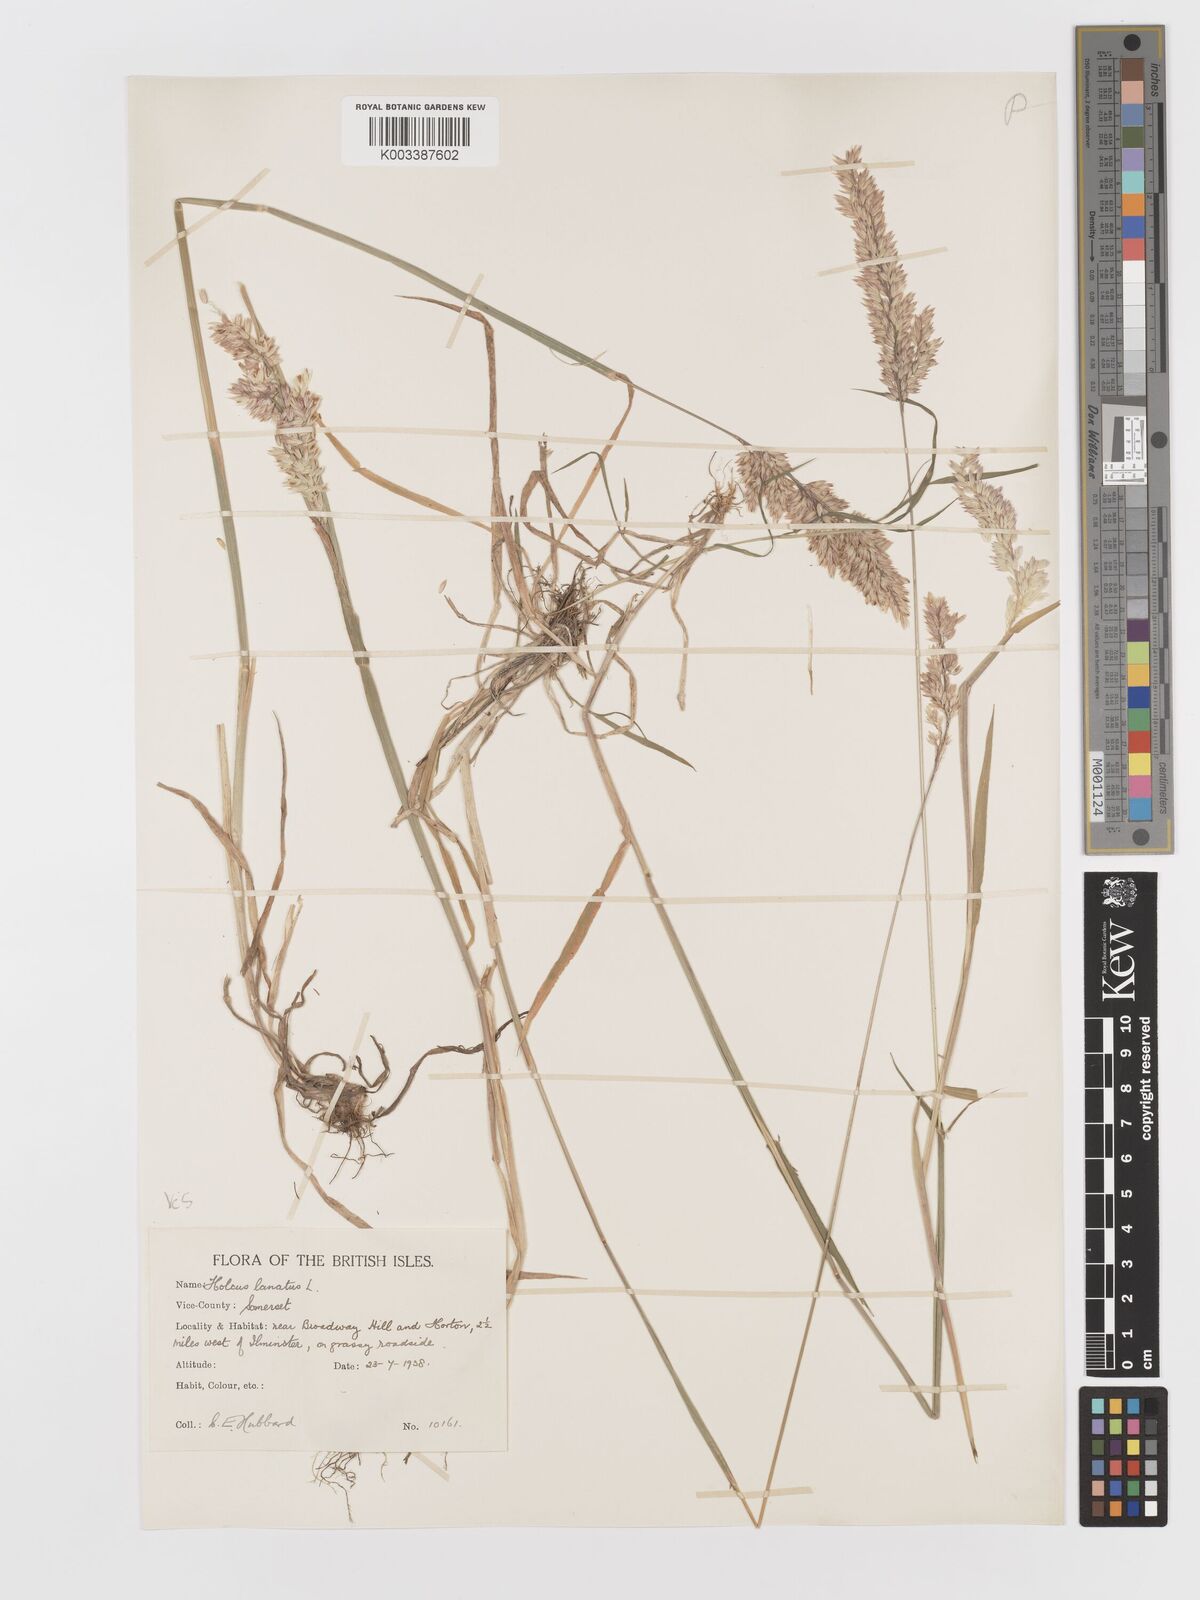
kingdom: Plantae
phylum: Tracheophyta
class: Liliopsida
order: Poales
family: Poaceae
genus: Holcus
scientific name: Holcus lanatus
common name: Yorkshire-fog
